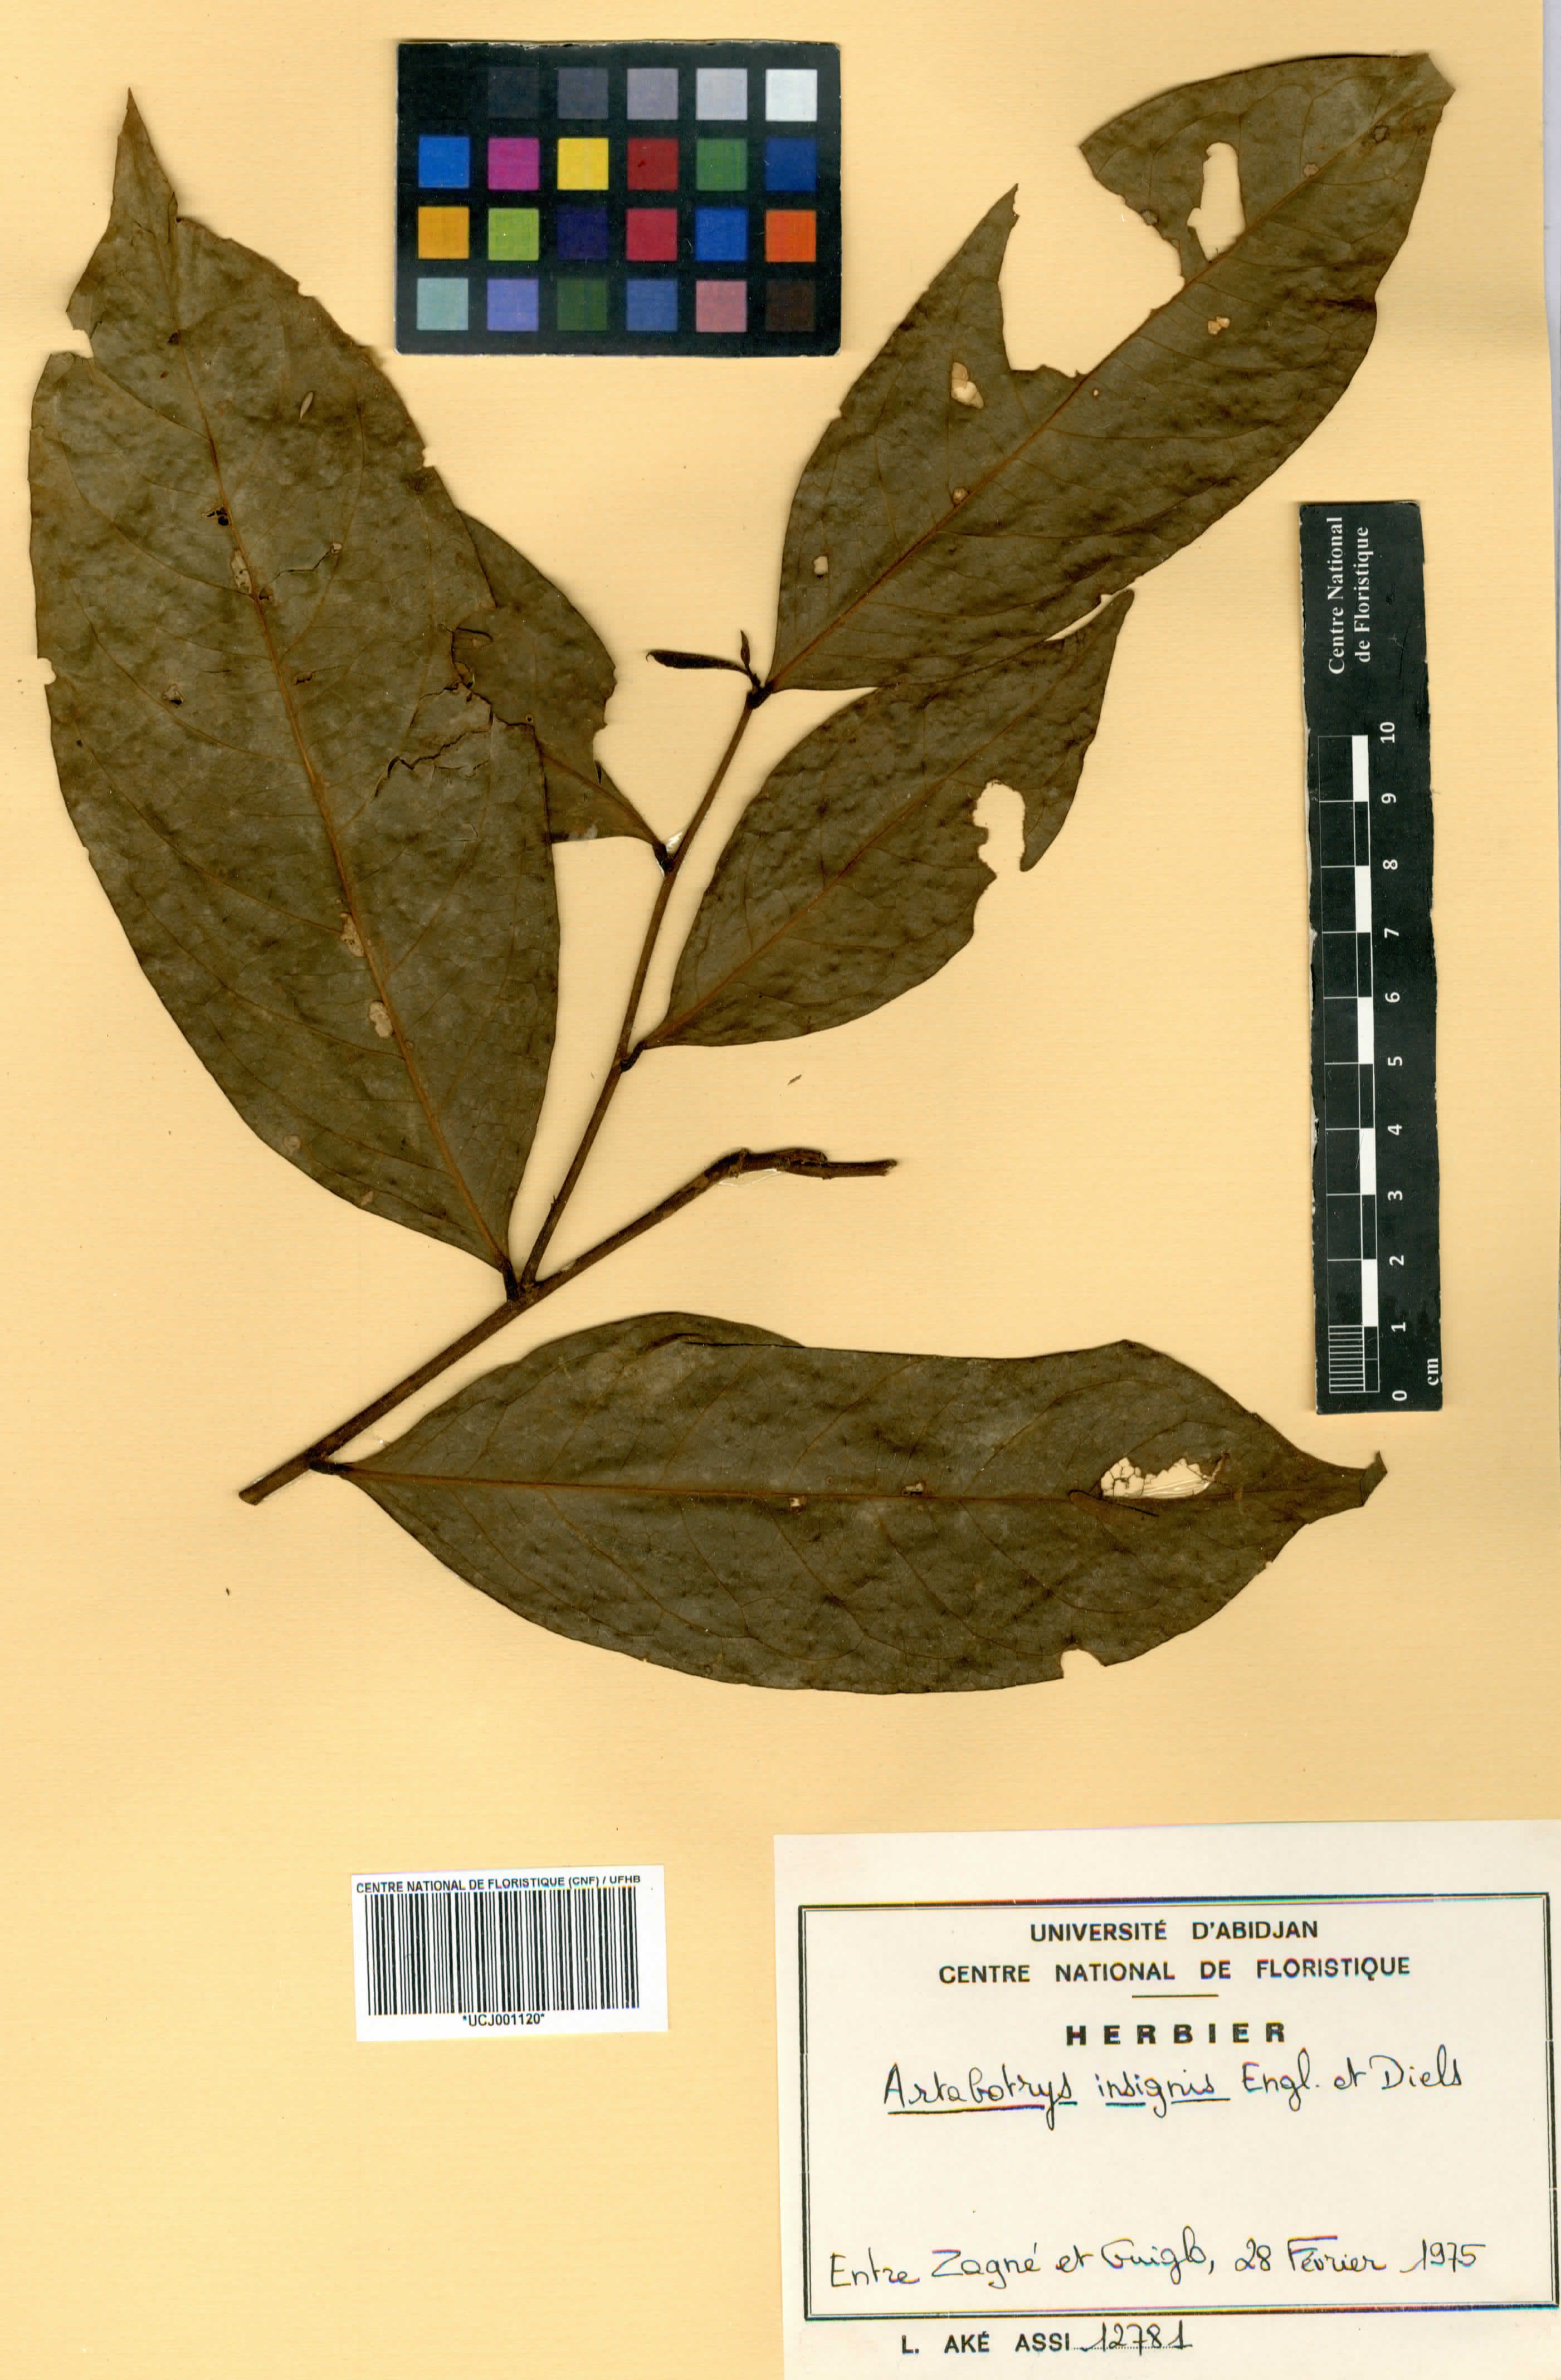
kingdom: Plantae
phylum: Tracheophyta
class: Magnoliopsida
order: Magnoliales
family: Annonaceae
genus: Artabotrys
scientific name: Artabotrys hispidus
